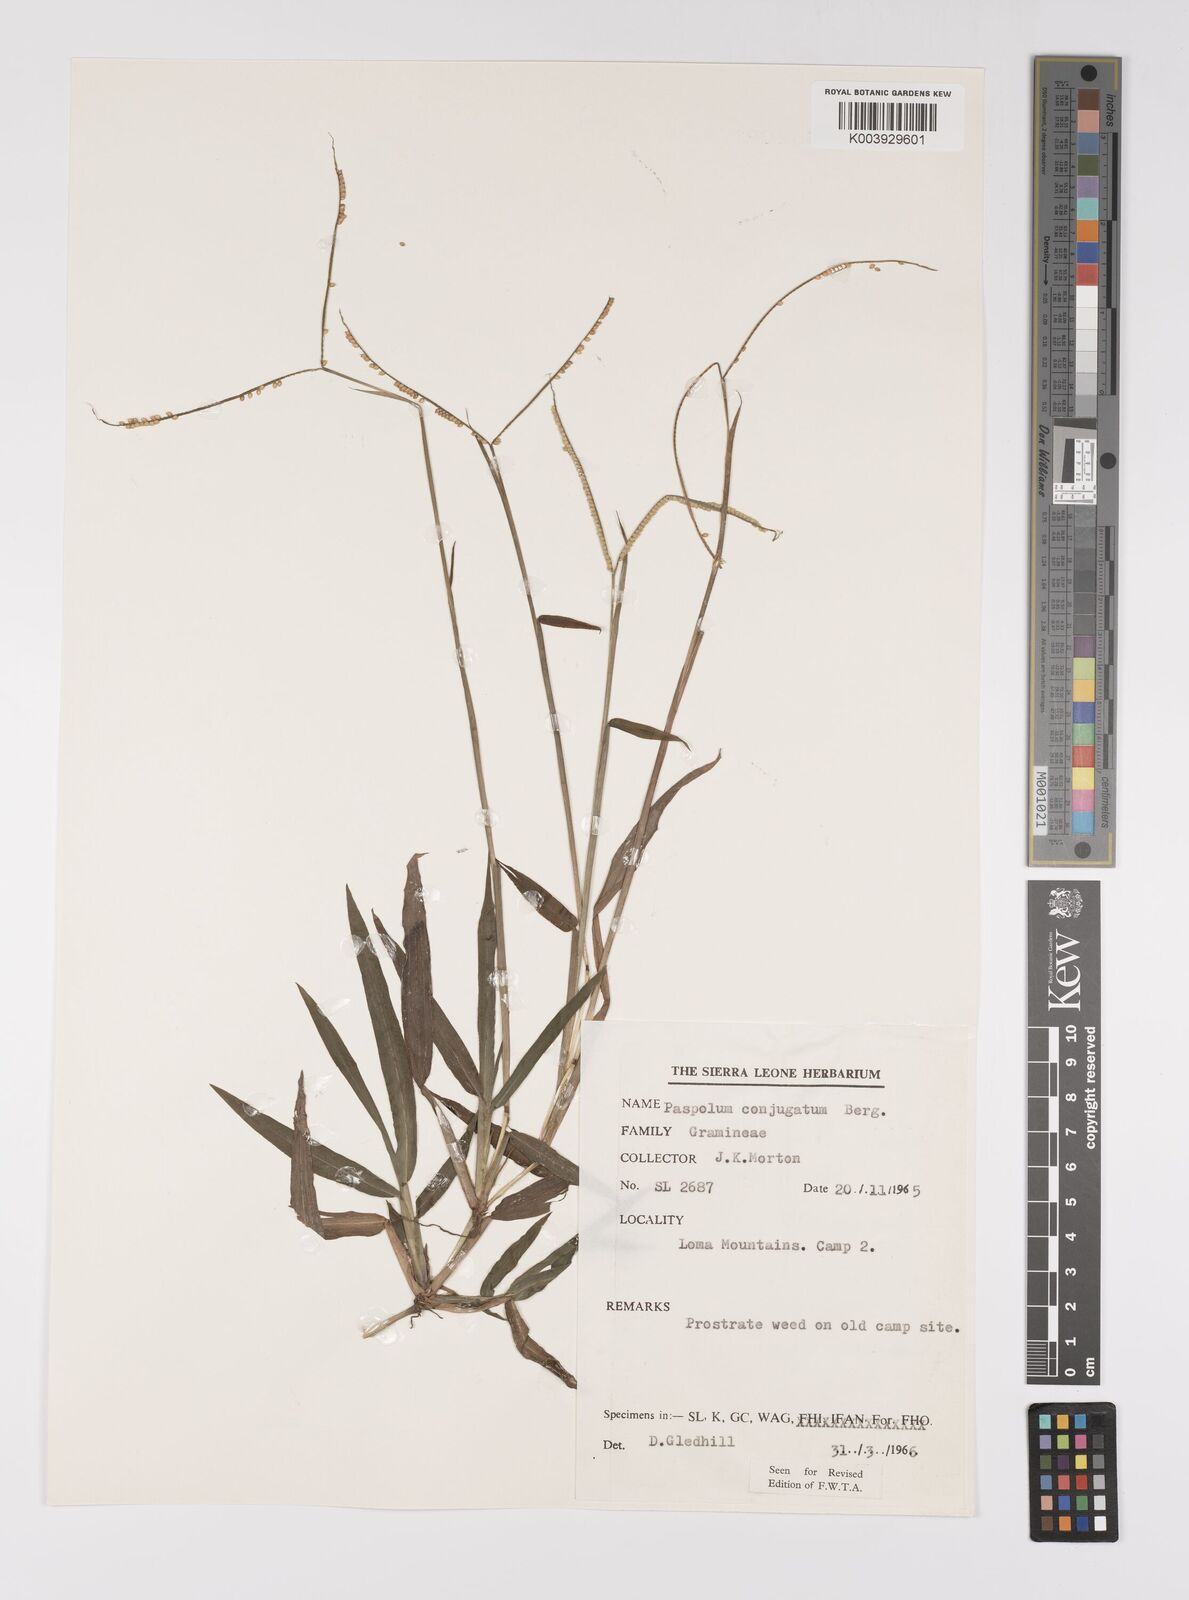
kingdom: Plantae
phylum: Tracheophyta
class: Liliopsida
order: Poales
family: Poaceae
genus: Paspalum
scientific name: Paspalum conjugatum
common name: Hilograss
